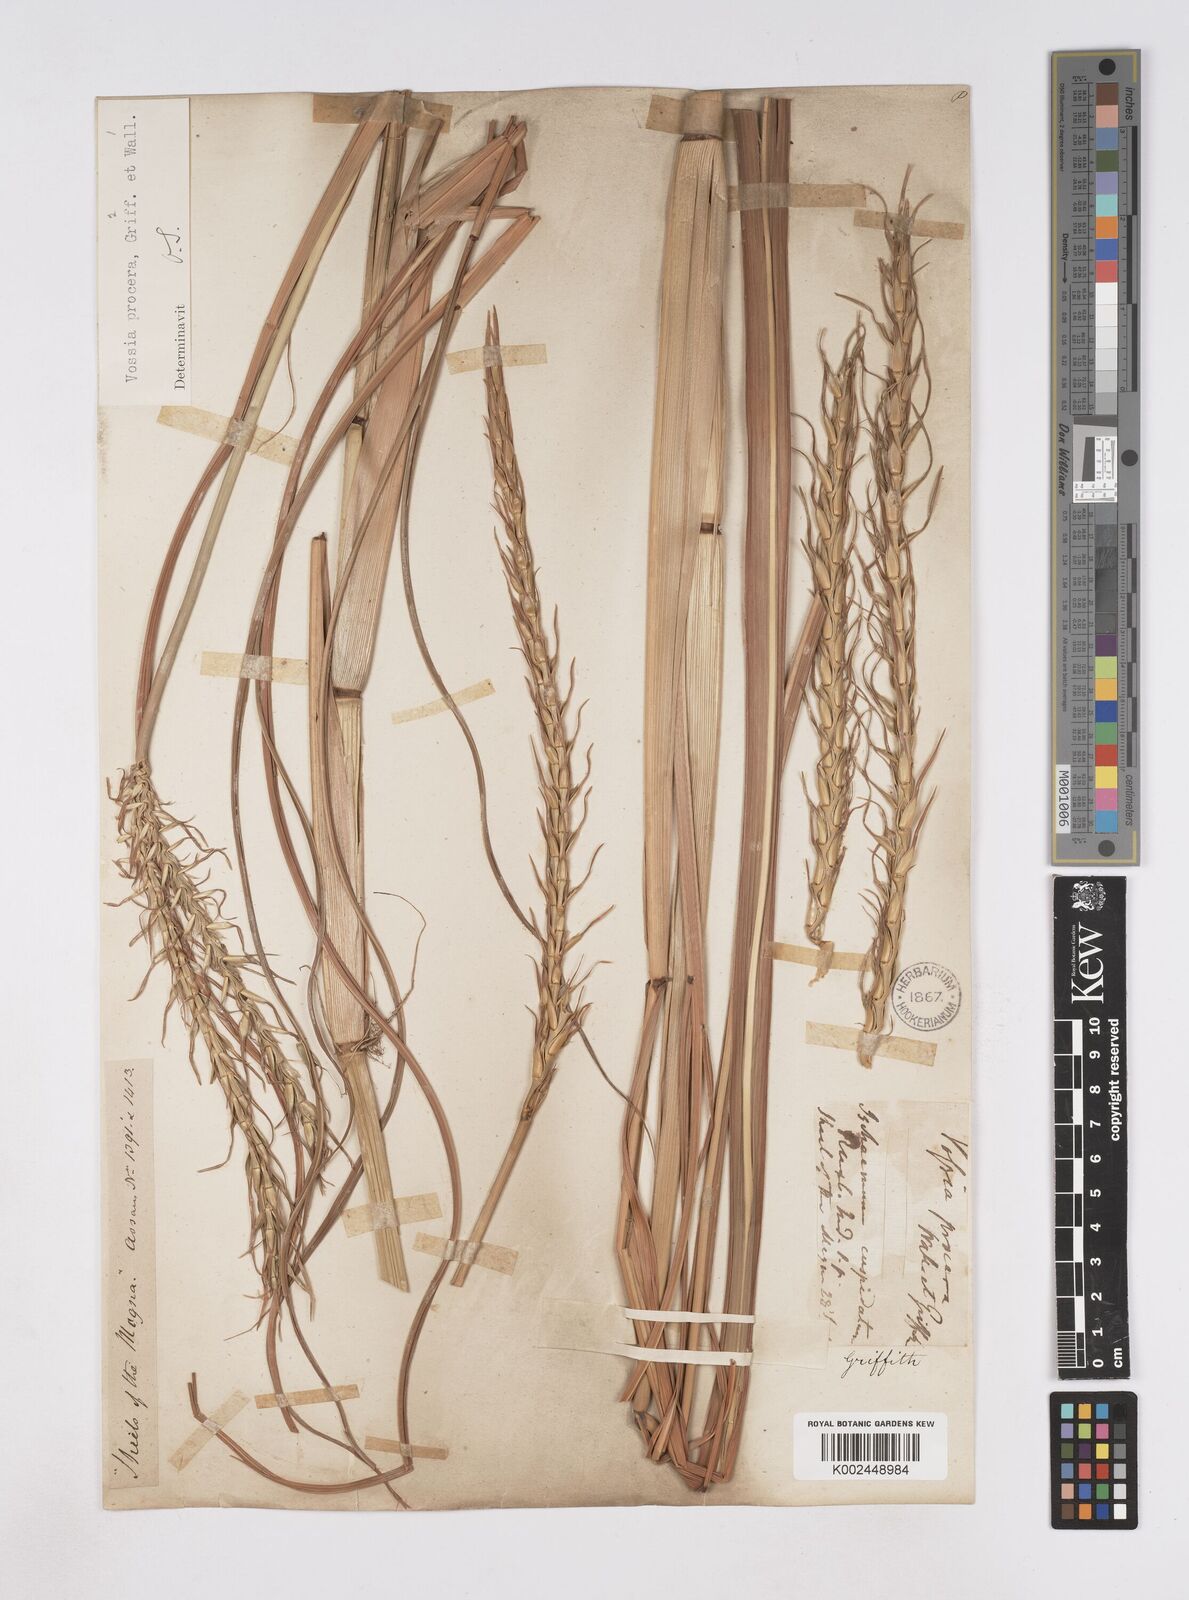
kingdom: Plantae
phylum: Tracheophyta
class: Liliopsida
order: Poales
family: Poaceae
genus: Vossia
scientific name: Vossia cuspidata
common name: Hippo grass
